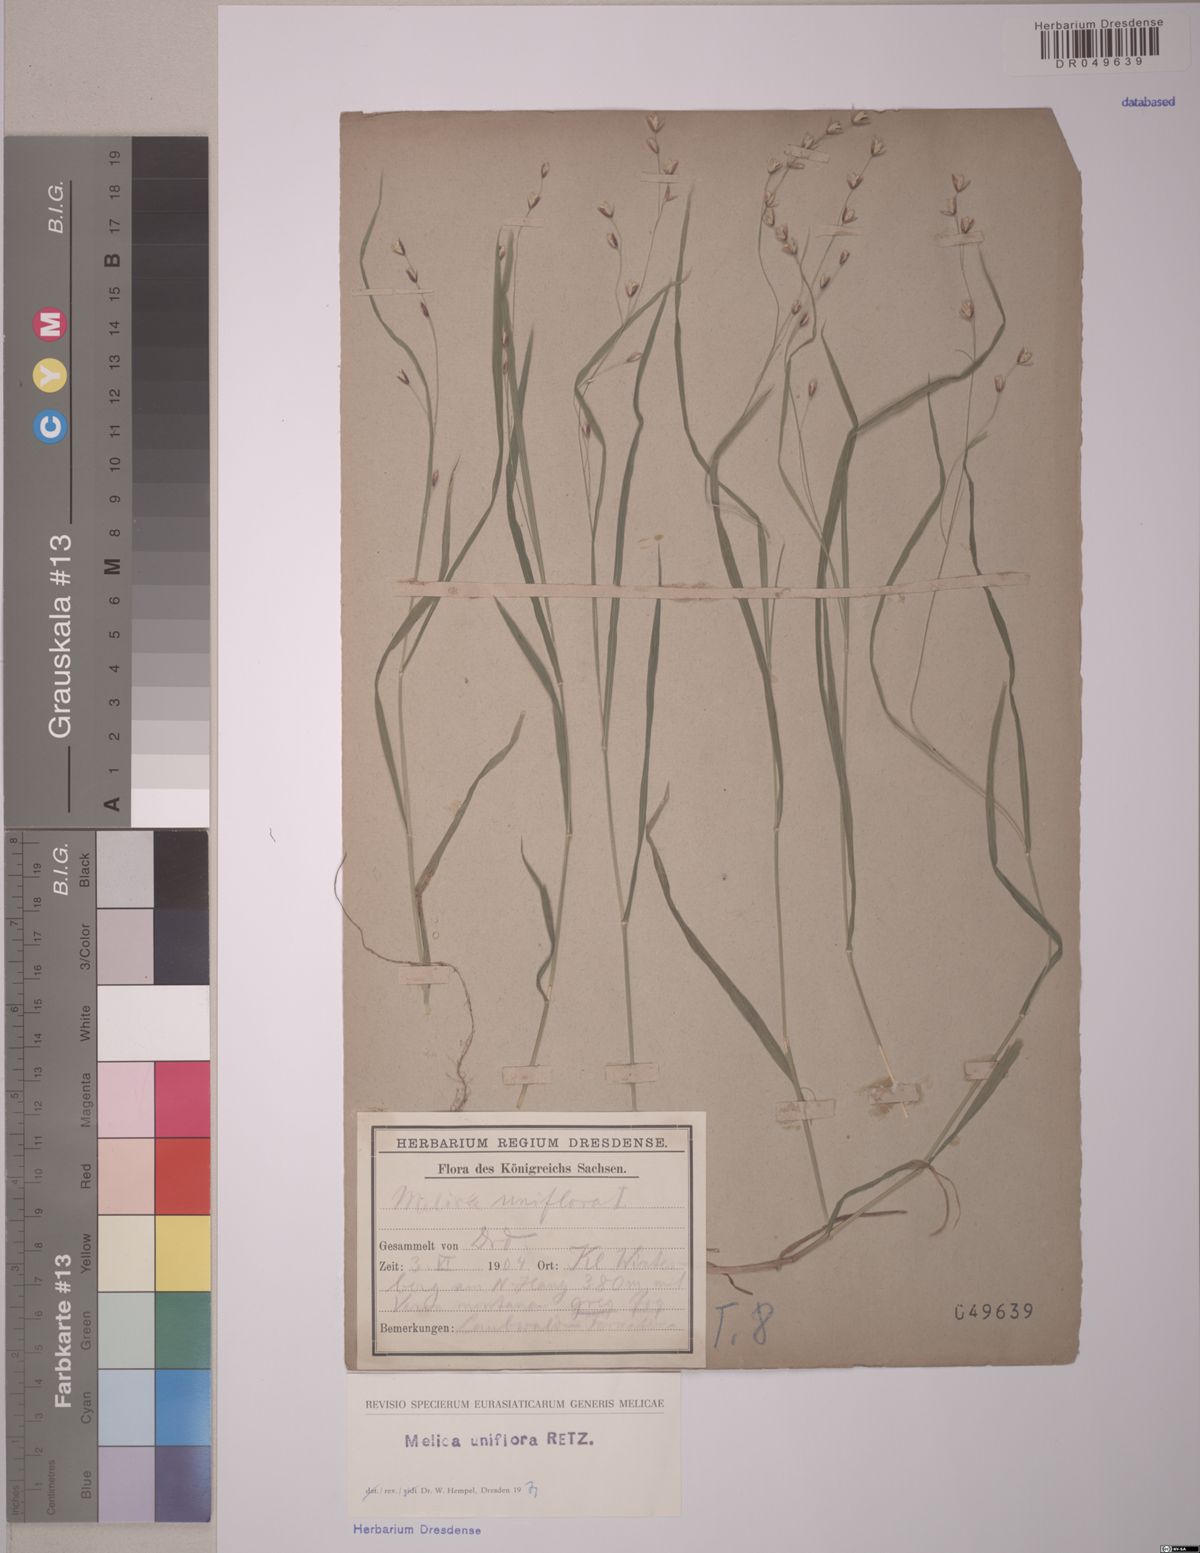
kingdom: Plantae
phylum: Tracheophyta
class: Liliopsida
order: Poales
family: Poaceae
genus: Melica
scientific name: Melica uniflora
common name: Wood melick
